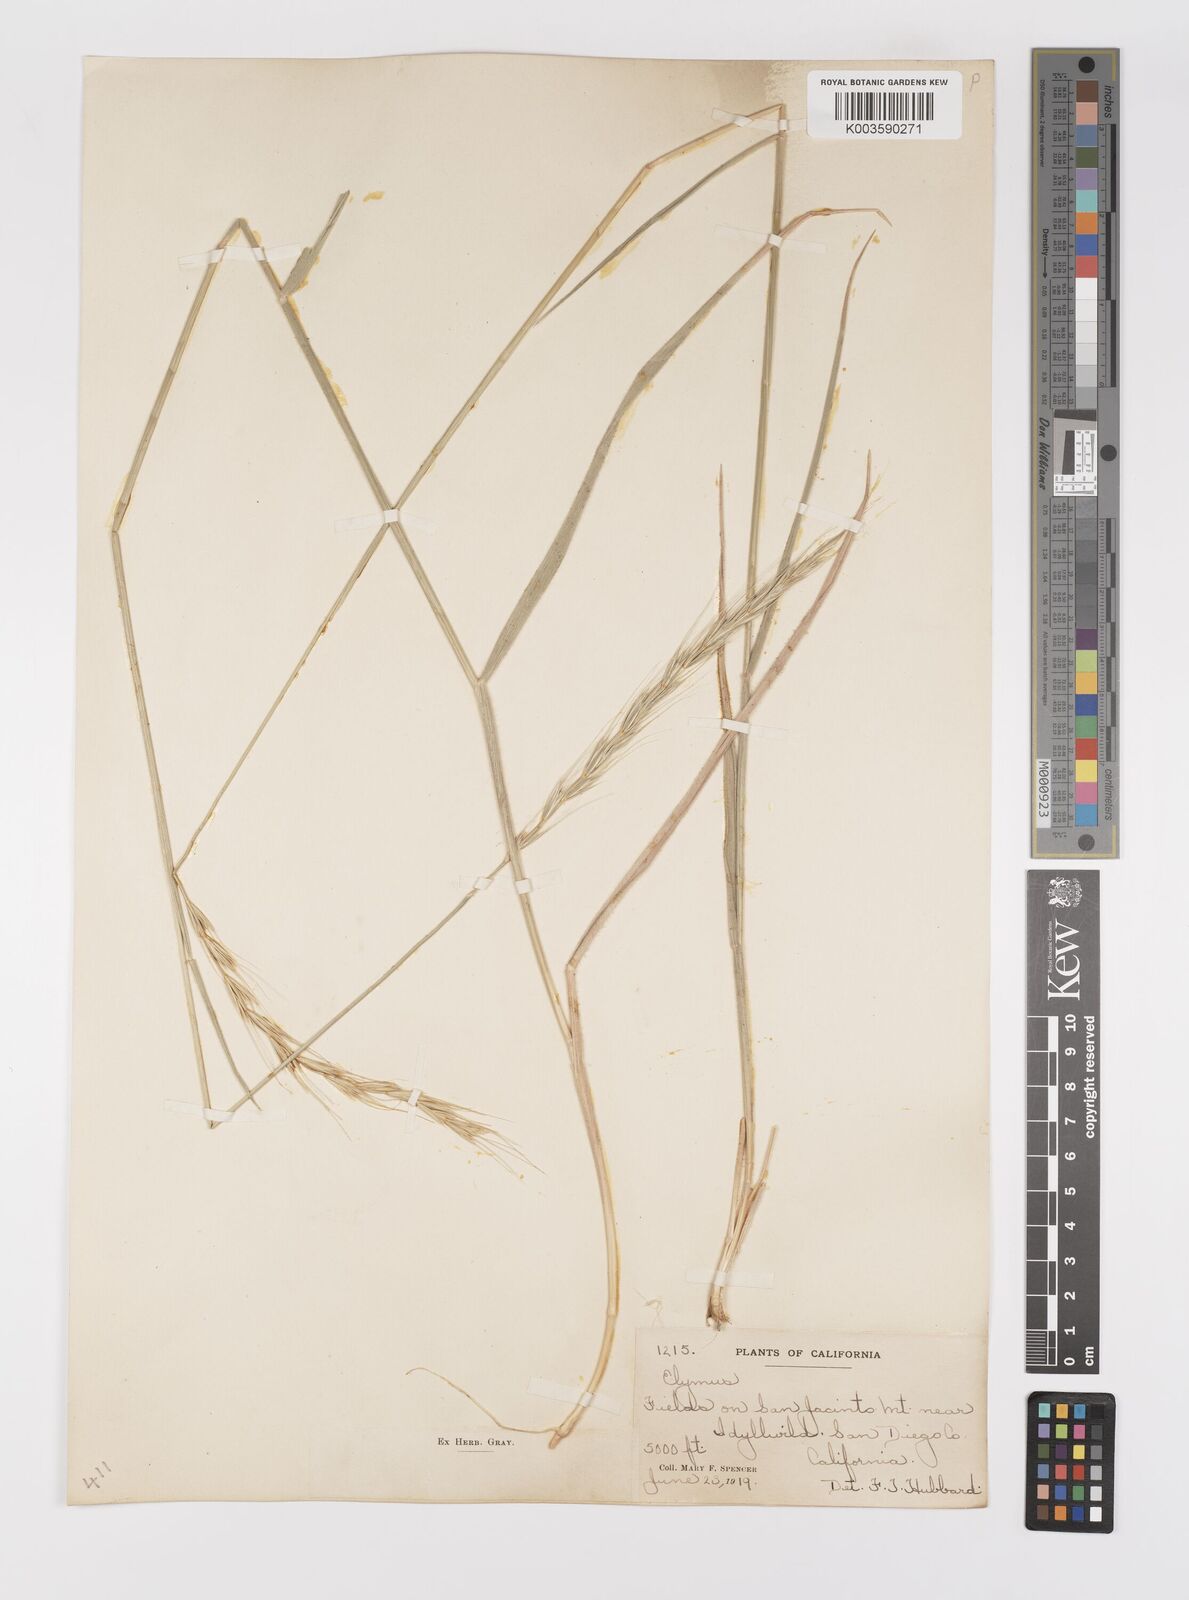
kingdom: Plantae
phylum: Tracheophyta
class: Liliopsida
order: Poales
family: Poaceae
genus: Elymus
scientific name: Elymus
